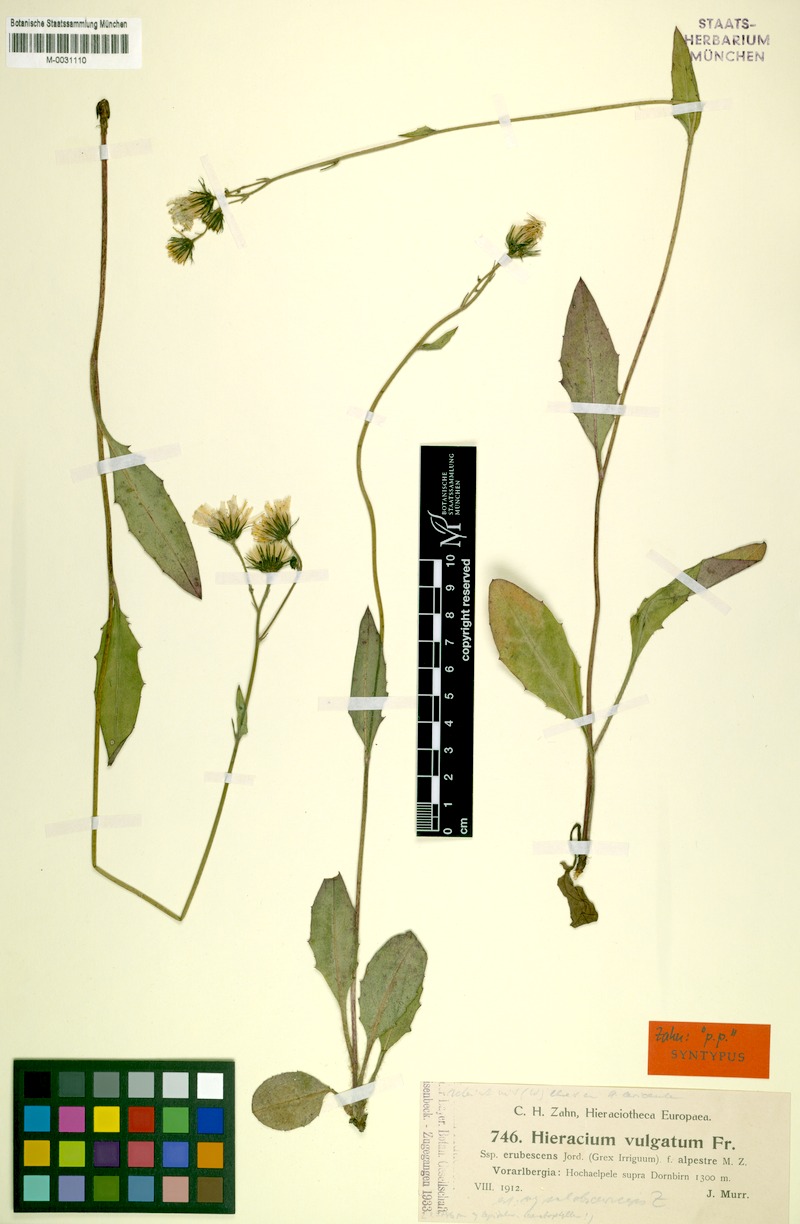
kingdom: Plantae
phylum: Tracheophyta
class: Magnoliopsida
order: Asterales
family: Asteraceae
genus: Hieracium
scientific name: Hieracium lachenalii
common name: Common hawkweed
